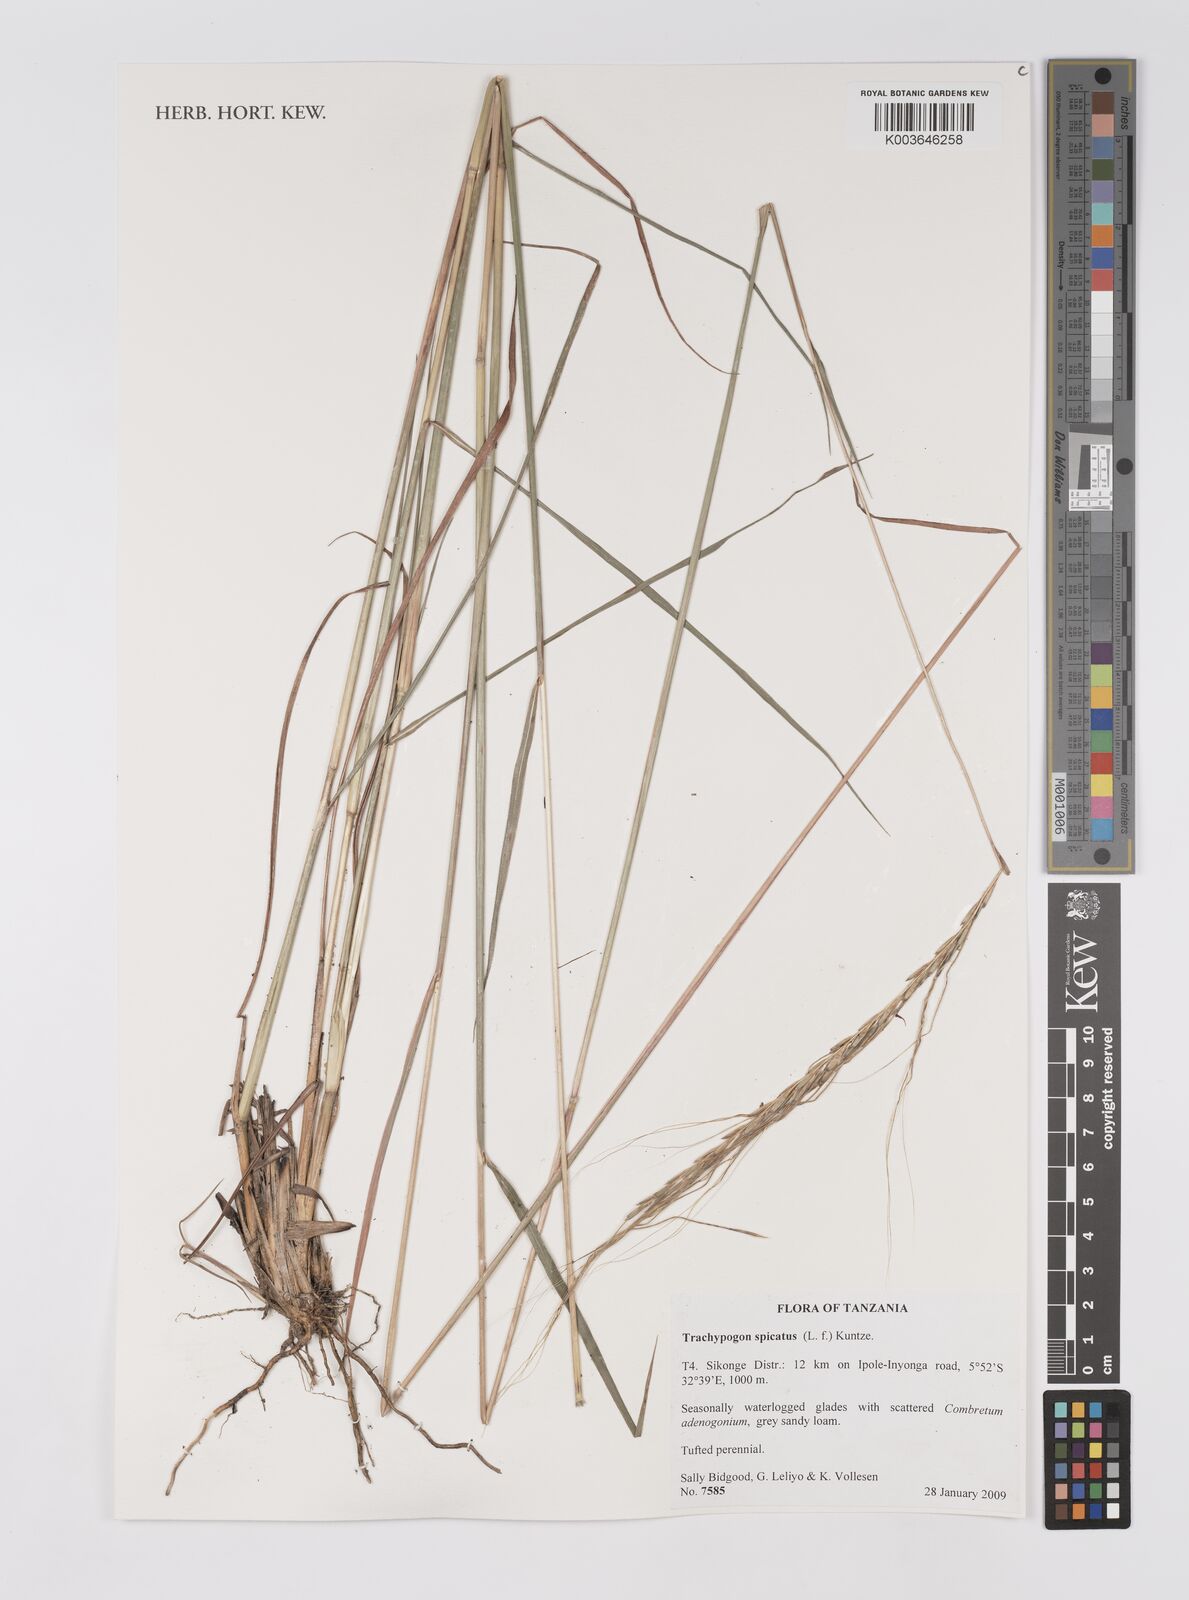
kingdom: Plantae
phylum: Tracheophyta
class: Liliopsida
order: Poales
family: Poaceae
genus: Trachypogon
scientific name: Trachypogon spicatus
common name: Crinkle-awn
